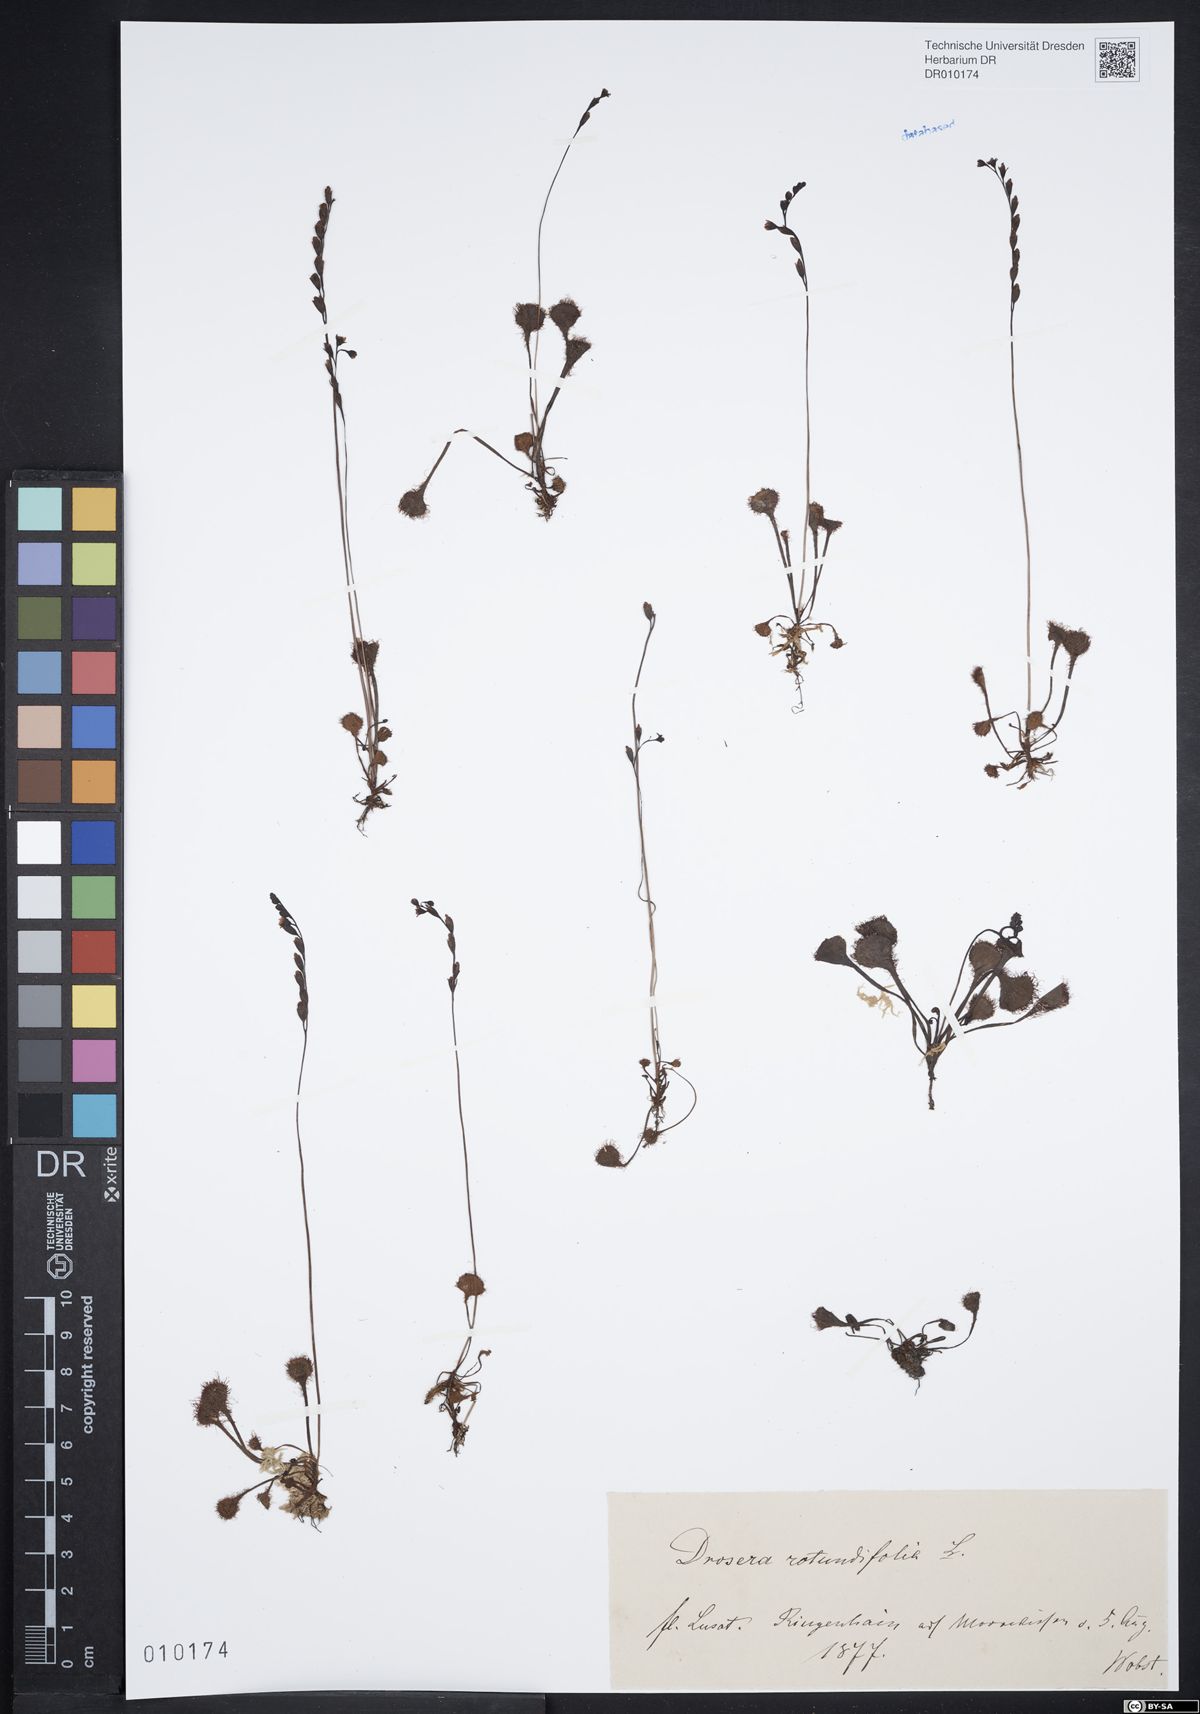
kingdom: Plantae
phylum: Tracheophyta
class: Magnoliopsida
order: Caryophyllales
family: Droseraceae
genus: Drosera
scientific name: Drosera rotundifolia
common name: Round-leaved sundew
